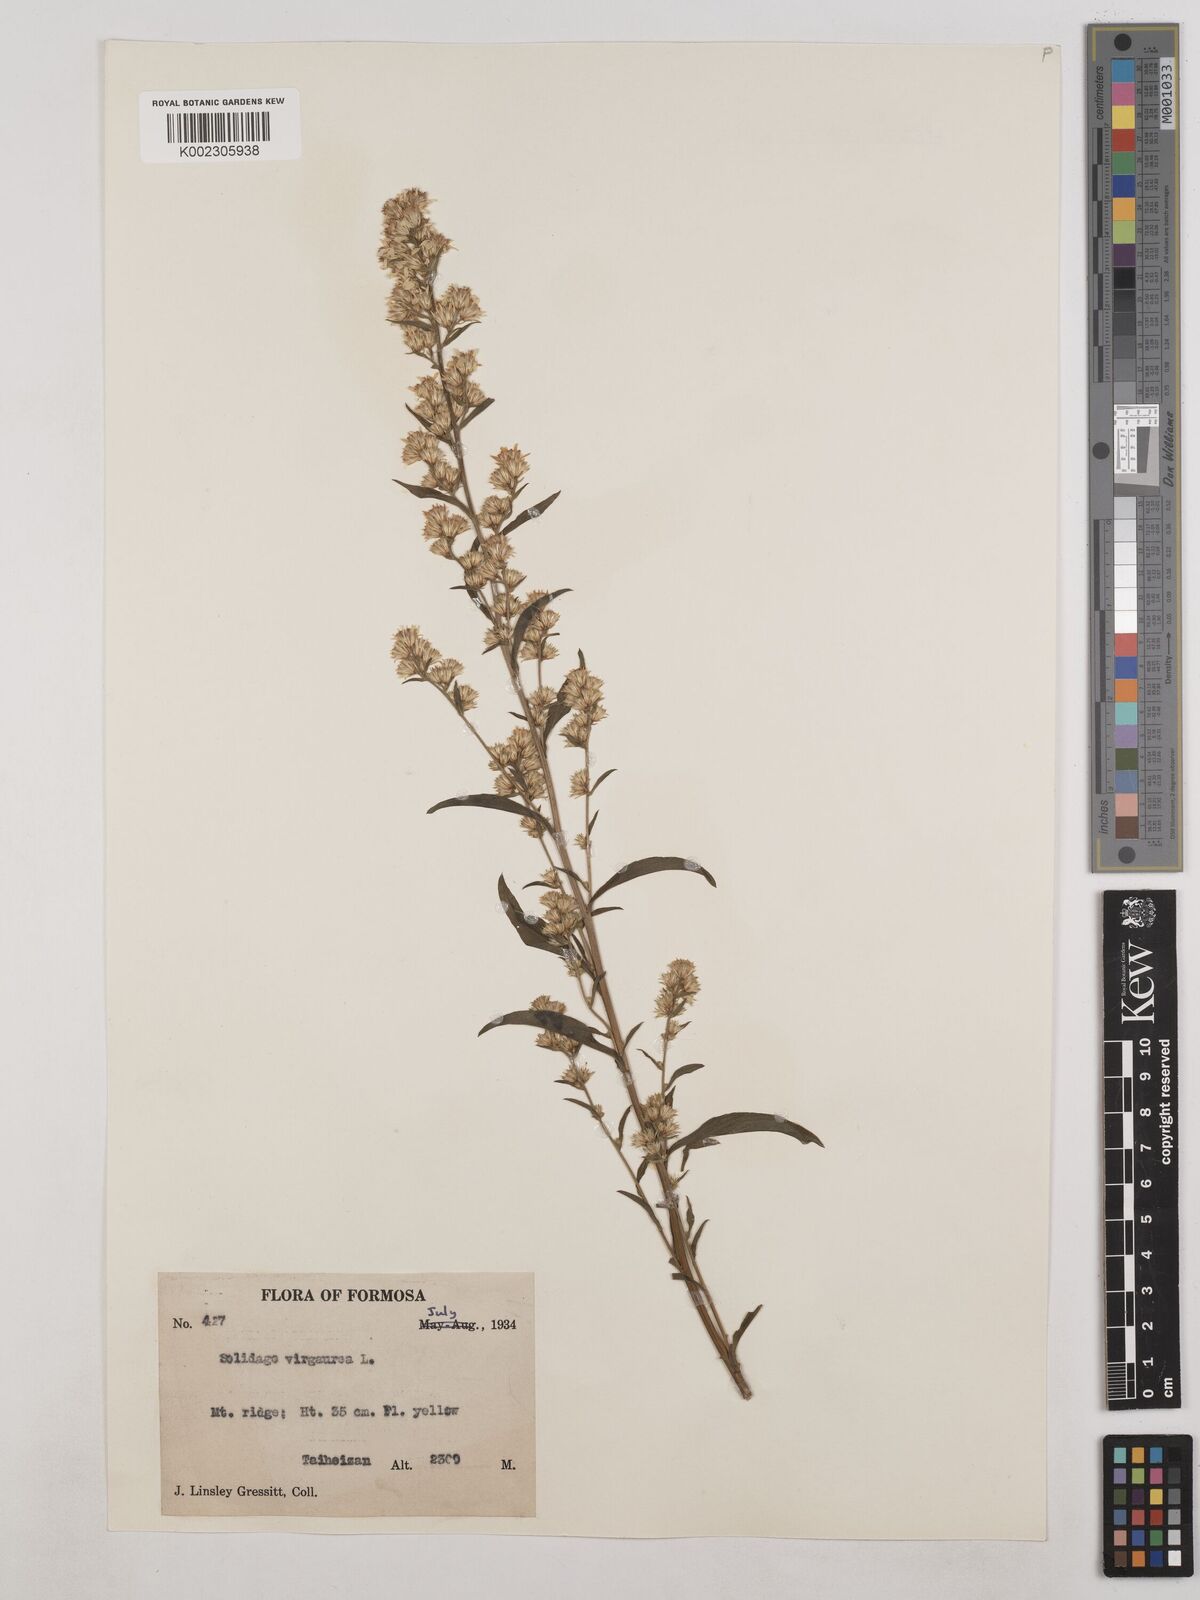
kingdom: Plantae
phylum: Tracheophyta
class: Magnoliopsida
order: Asterales
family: Asteraceae
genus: Solidago
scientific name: Solidago virgaurea
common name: Goldenrod
